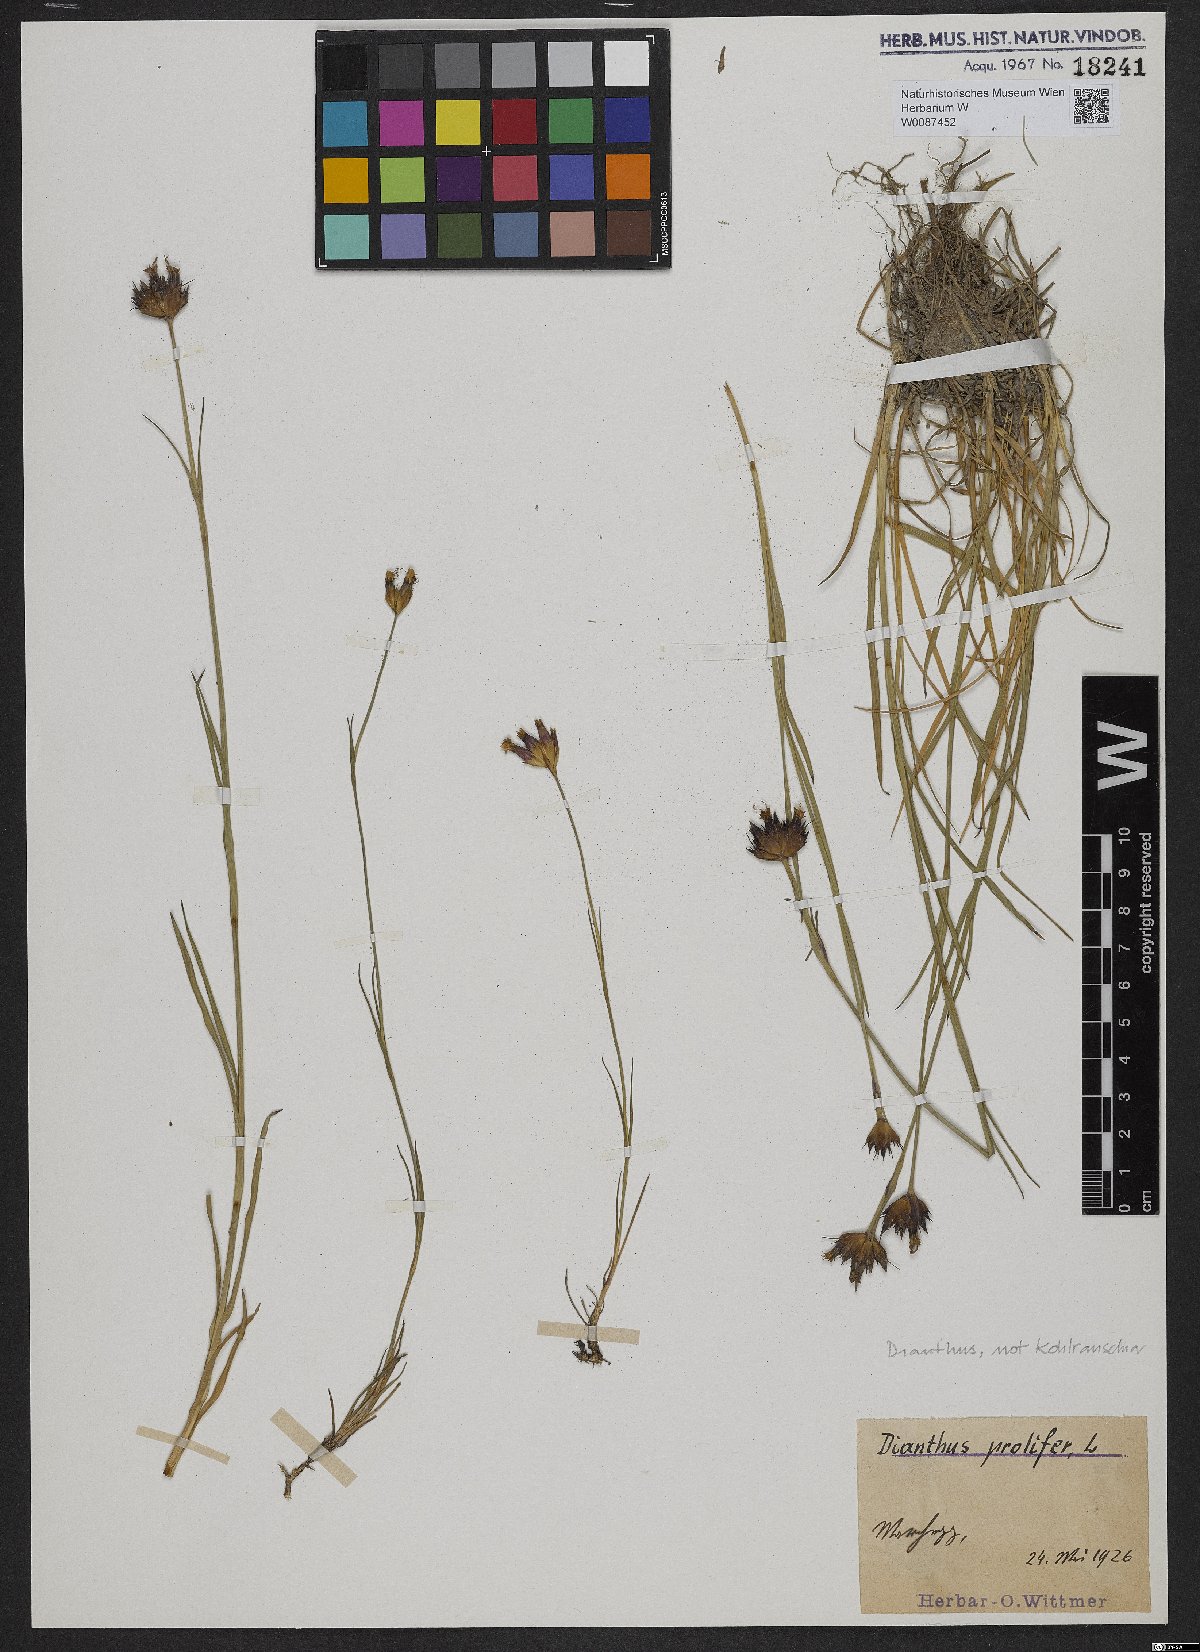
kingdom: Plantae
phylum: Tracheophyta
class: Magnoliopsida
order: Caryophyllales
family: Caryophyllaceae
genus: Dianthus
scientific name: Dianthus carthusianorum
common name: Carthusian pink
